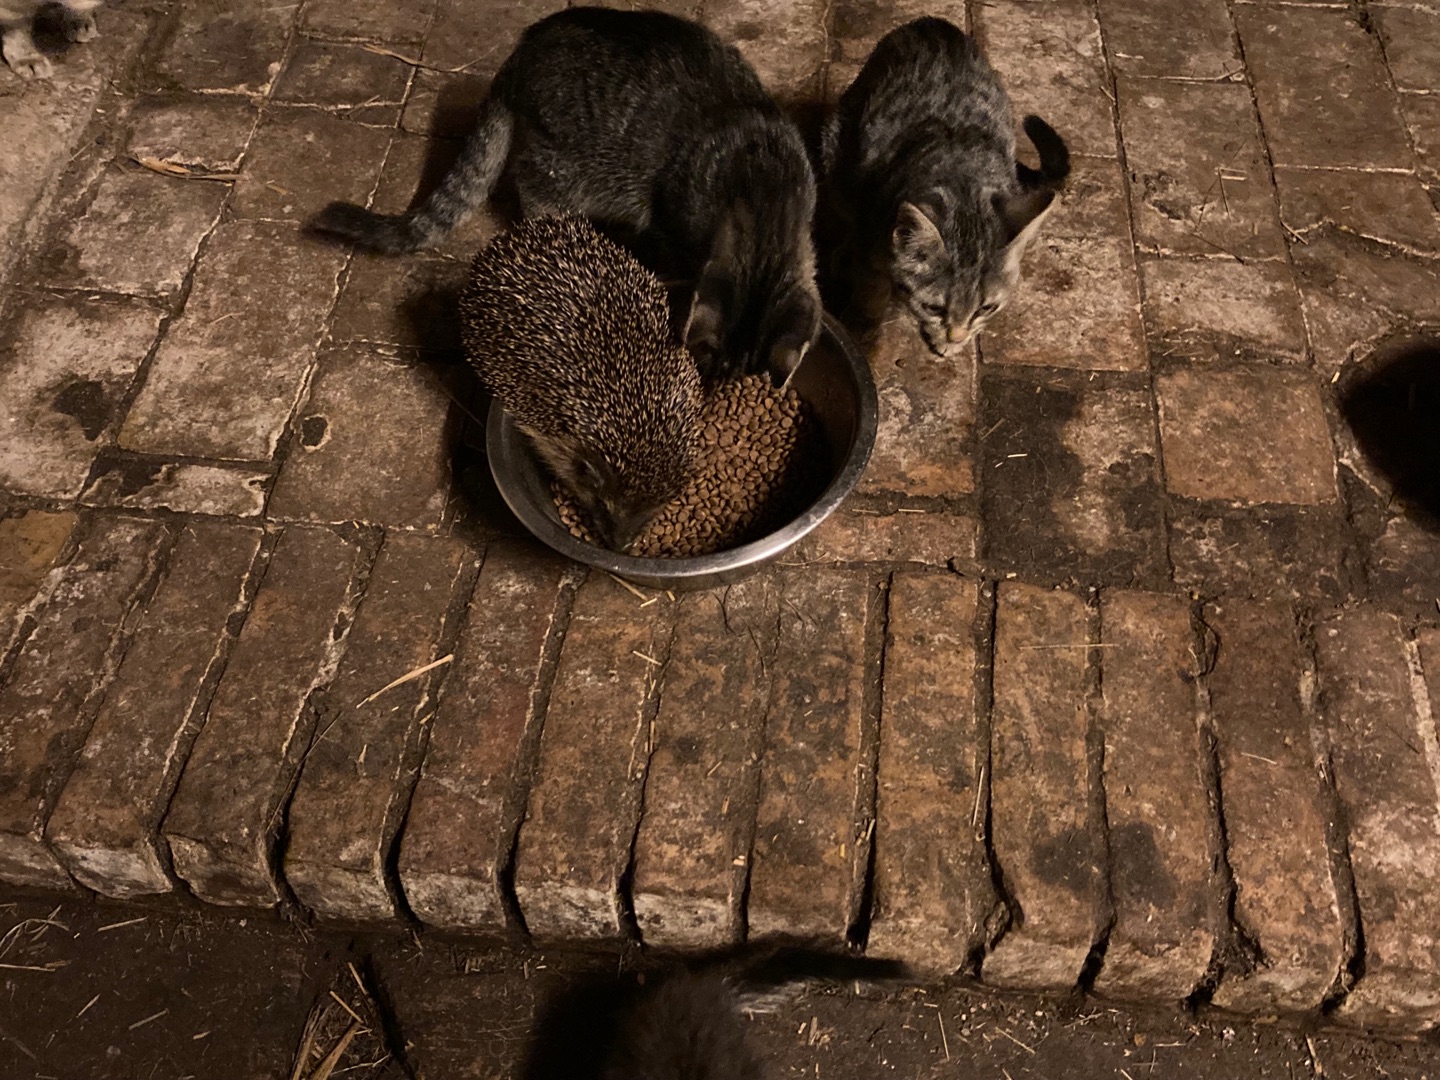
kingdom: Animalia
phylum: Chordata
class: Mammalia
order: Erinaceomorpha
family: Erinaceidae
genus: Erinaceus
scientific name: Erinaceus europaeus
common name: Pindsvin
